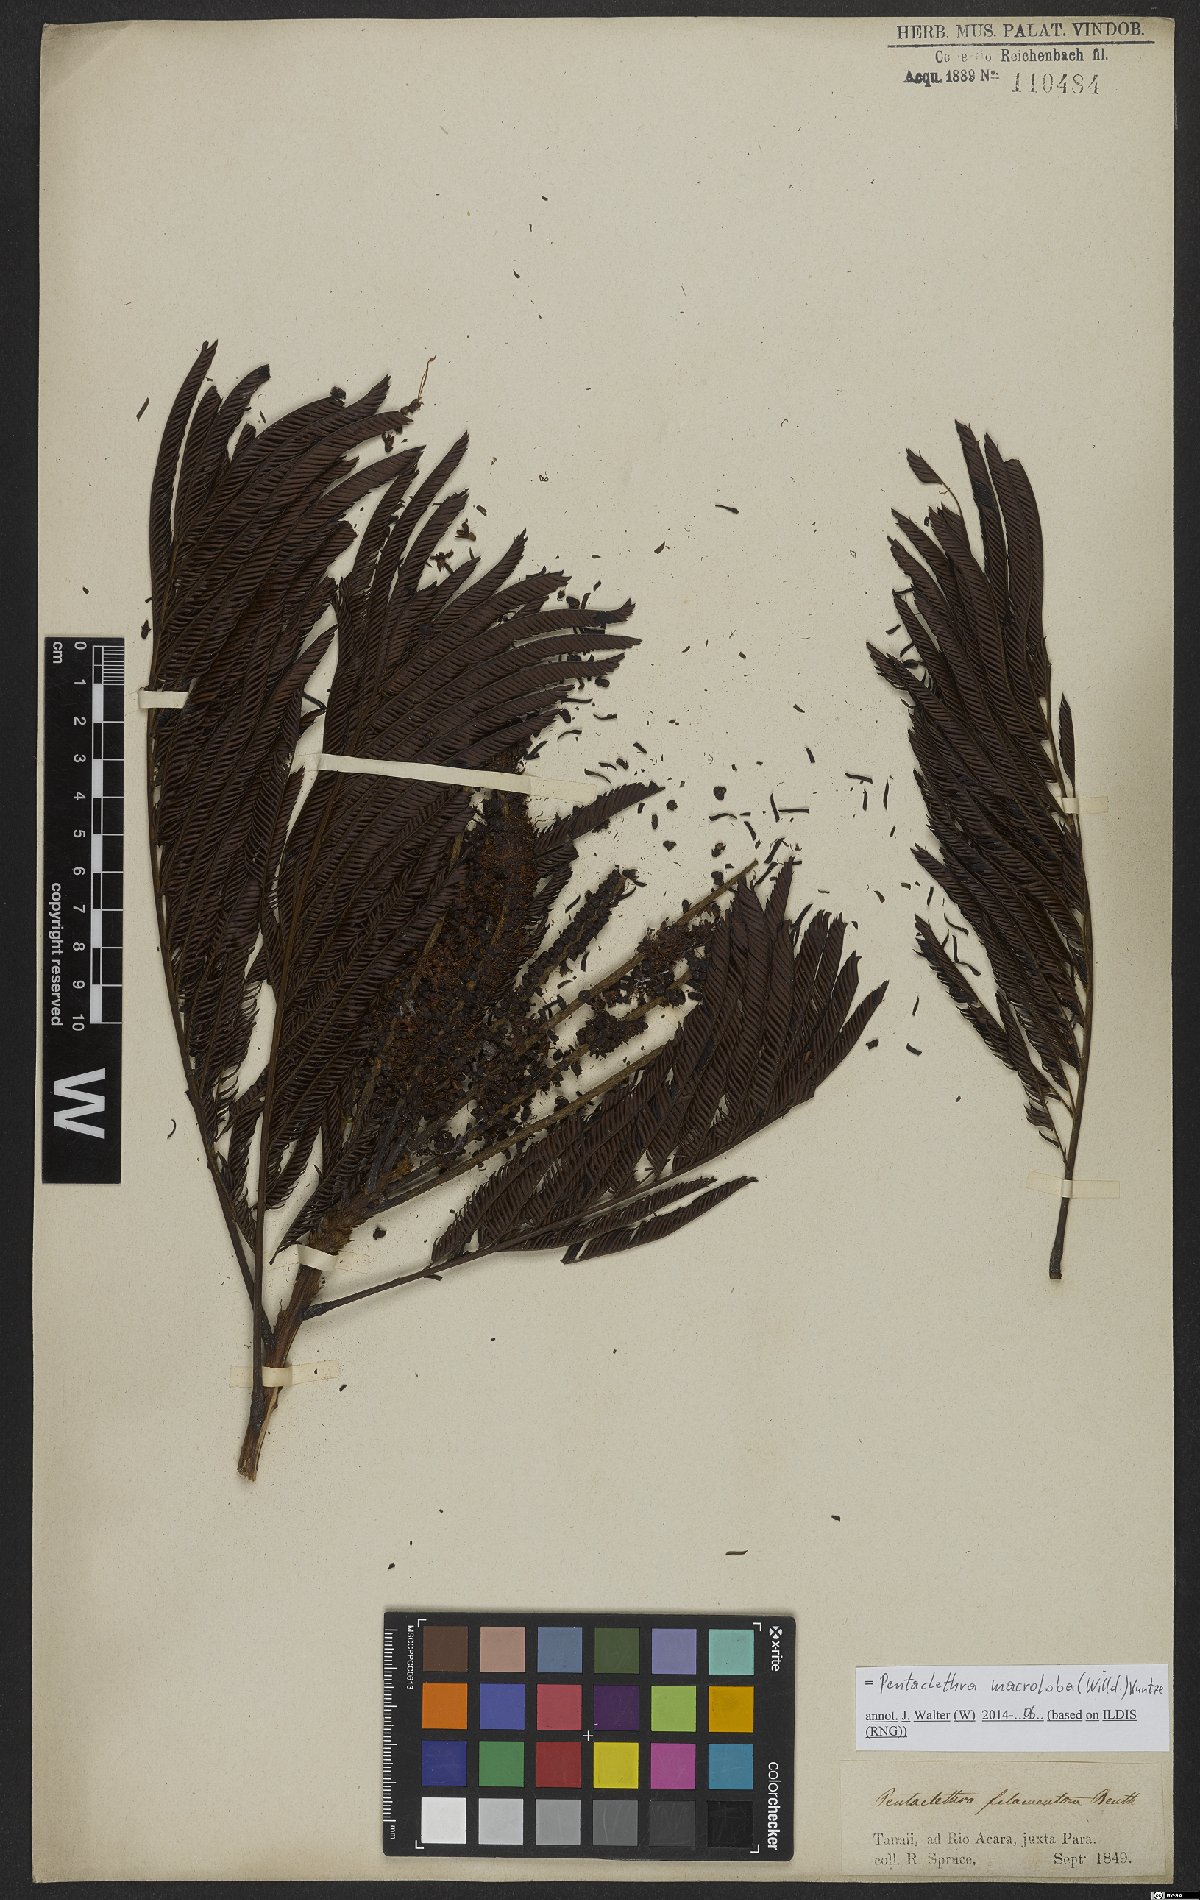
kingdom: Plantae
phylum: Tracheophyta
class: Magnoliopsida
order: Fabales
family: Fabaceae
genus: Pentaclethra
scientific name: Pentaclethra macroloba
